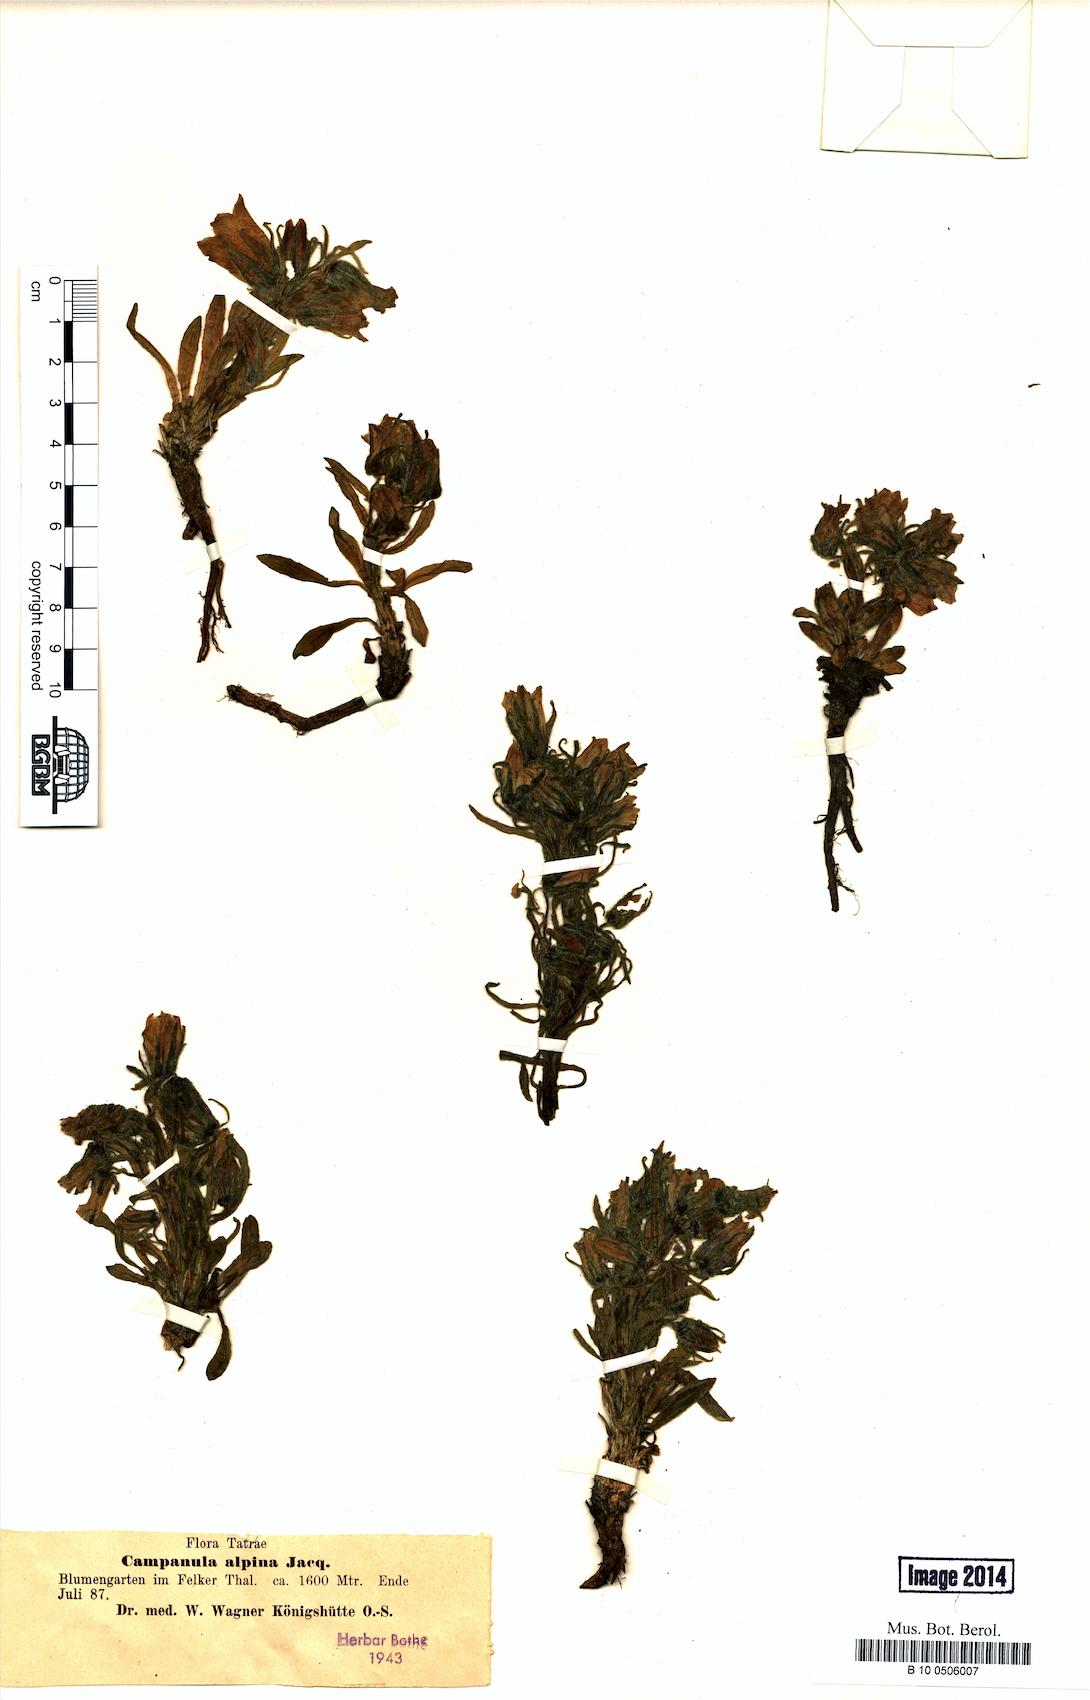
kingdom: Plantae
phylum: Tracheophyta
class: Magnoliopsida
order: Asterales
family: Campanulaceae
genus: Campanula
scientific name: Campanula alpina
